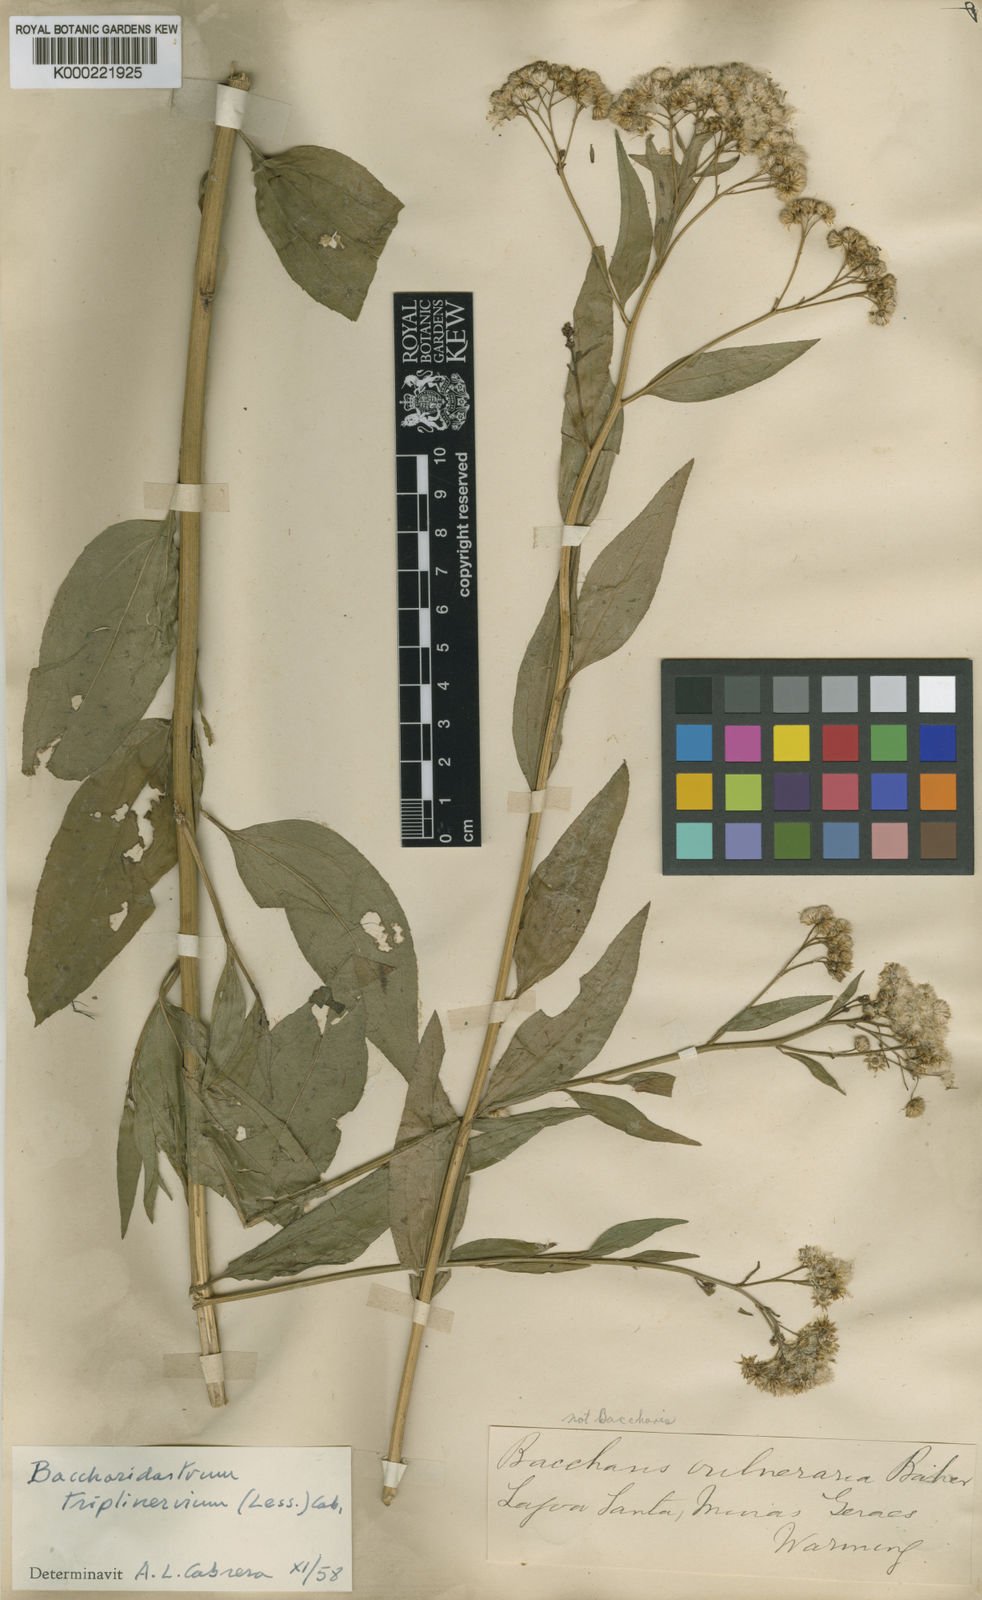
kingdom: Plantae
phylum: Tracheophyta
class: Magnoliopsida
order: Asterales
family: Asteraceae
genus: Archibaccharis
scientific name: Archibaccharis vulneraria
